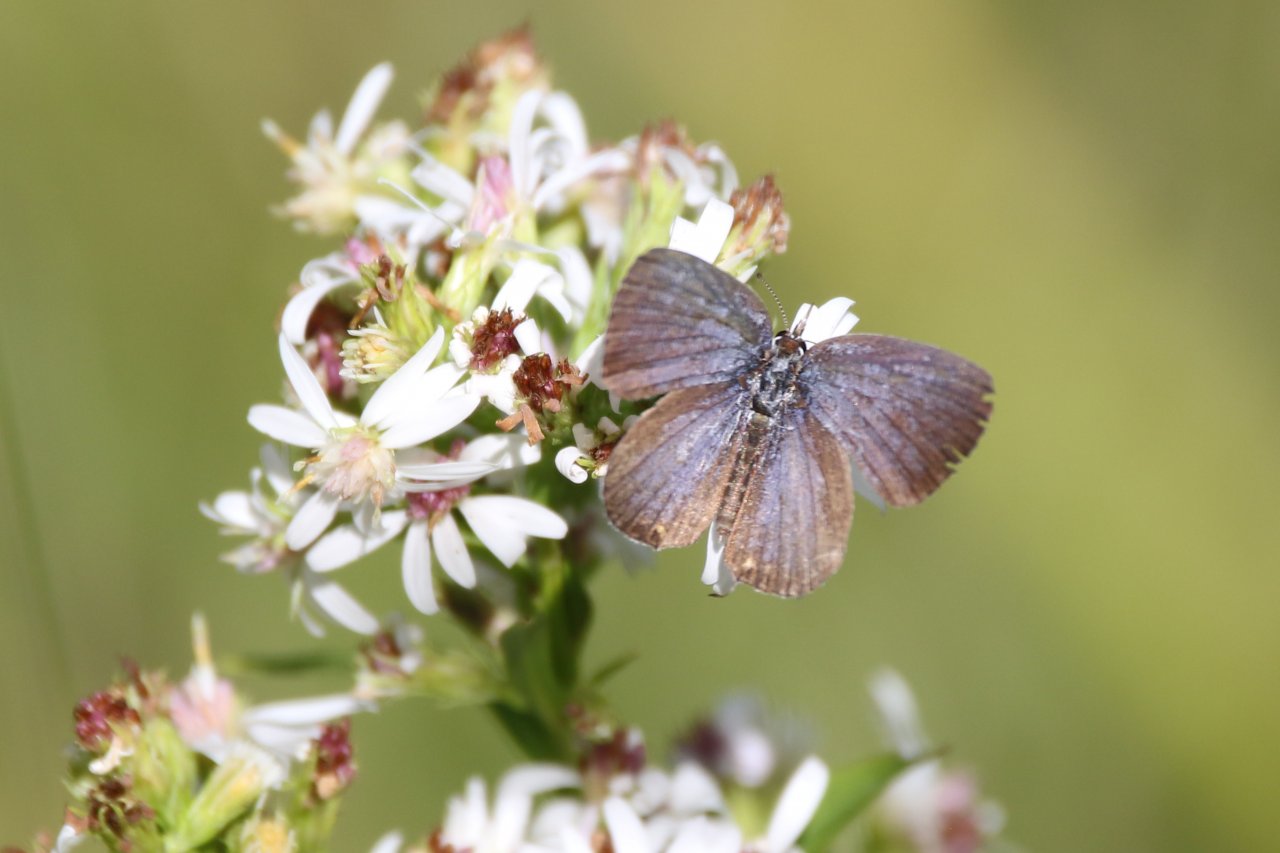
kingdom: Animalia
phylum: Arthropoda
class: Insecta
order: Lepidoptera
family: Lycaenidae
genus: Elkalyce
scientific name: Elkalyce comyntas
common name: Eastern Tailed-Blue
